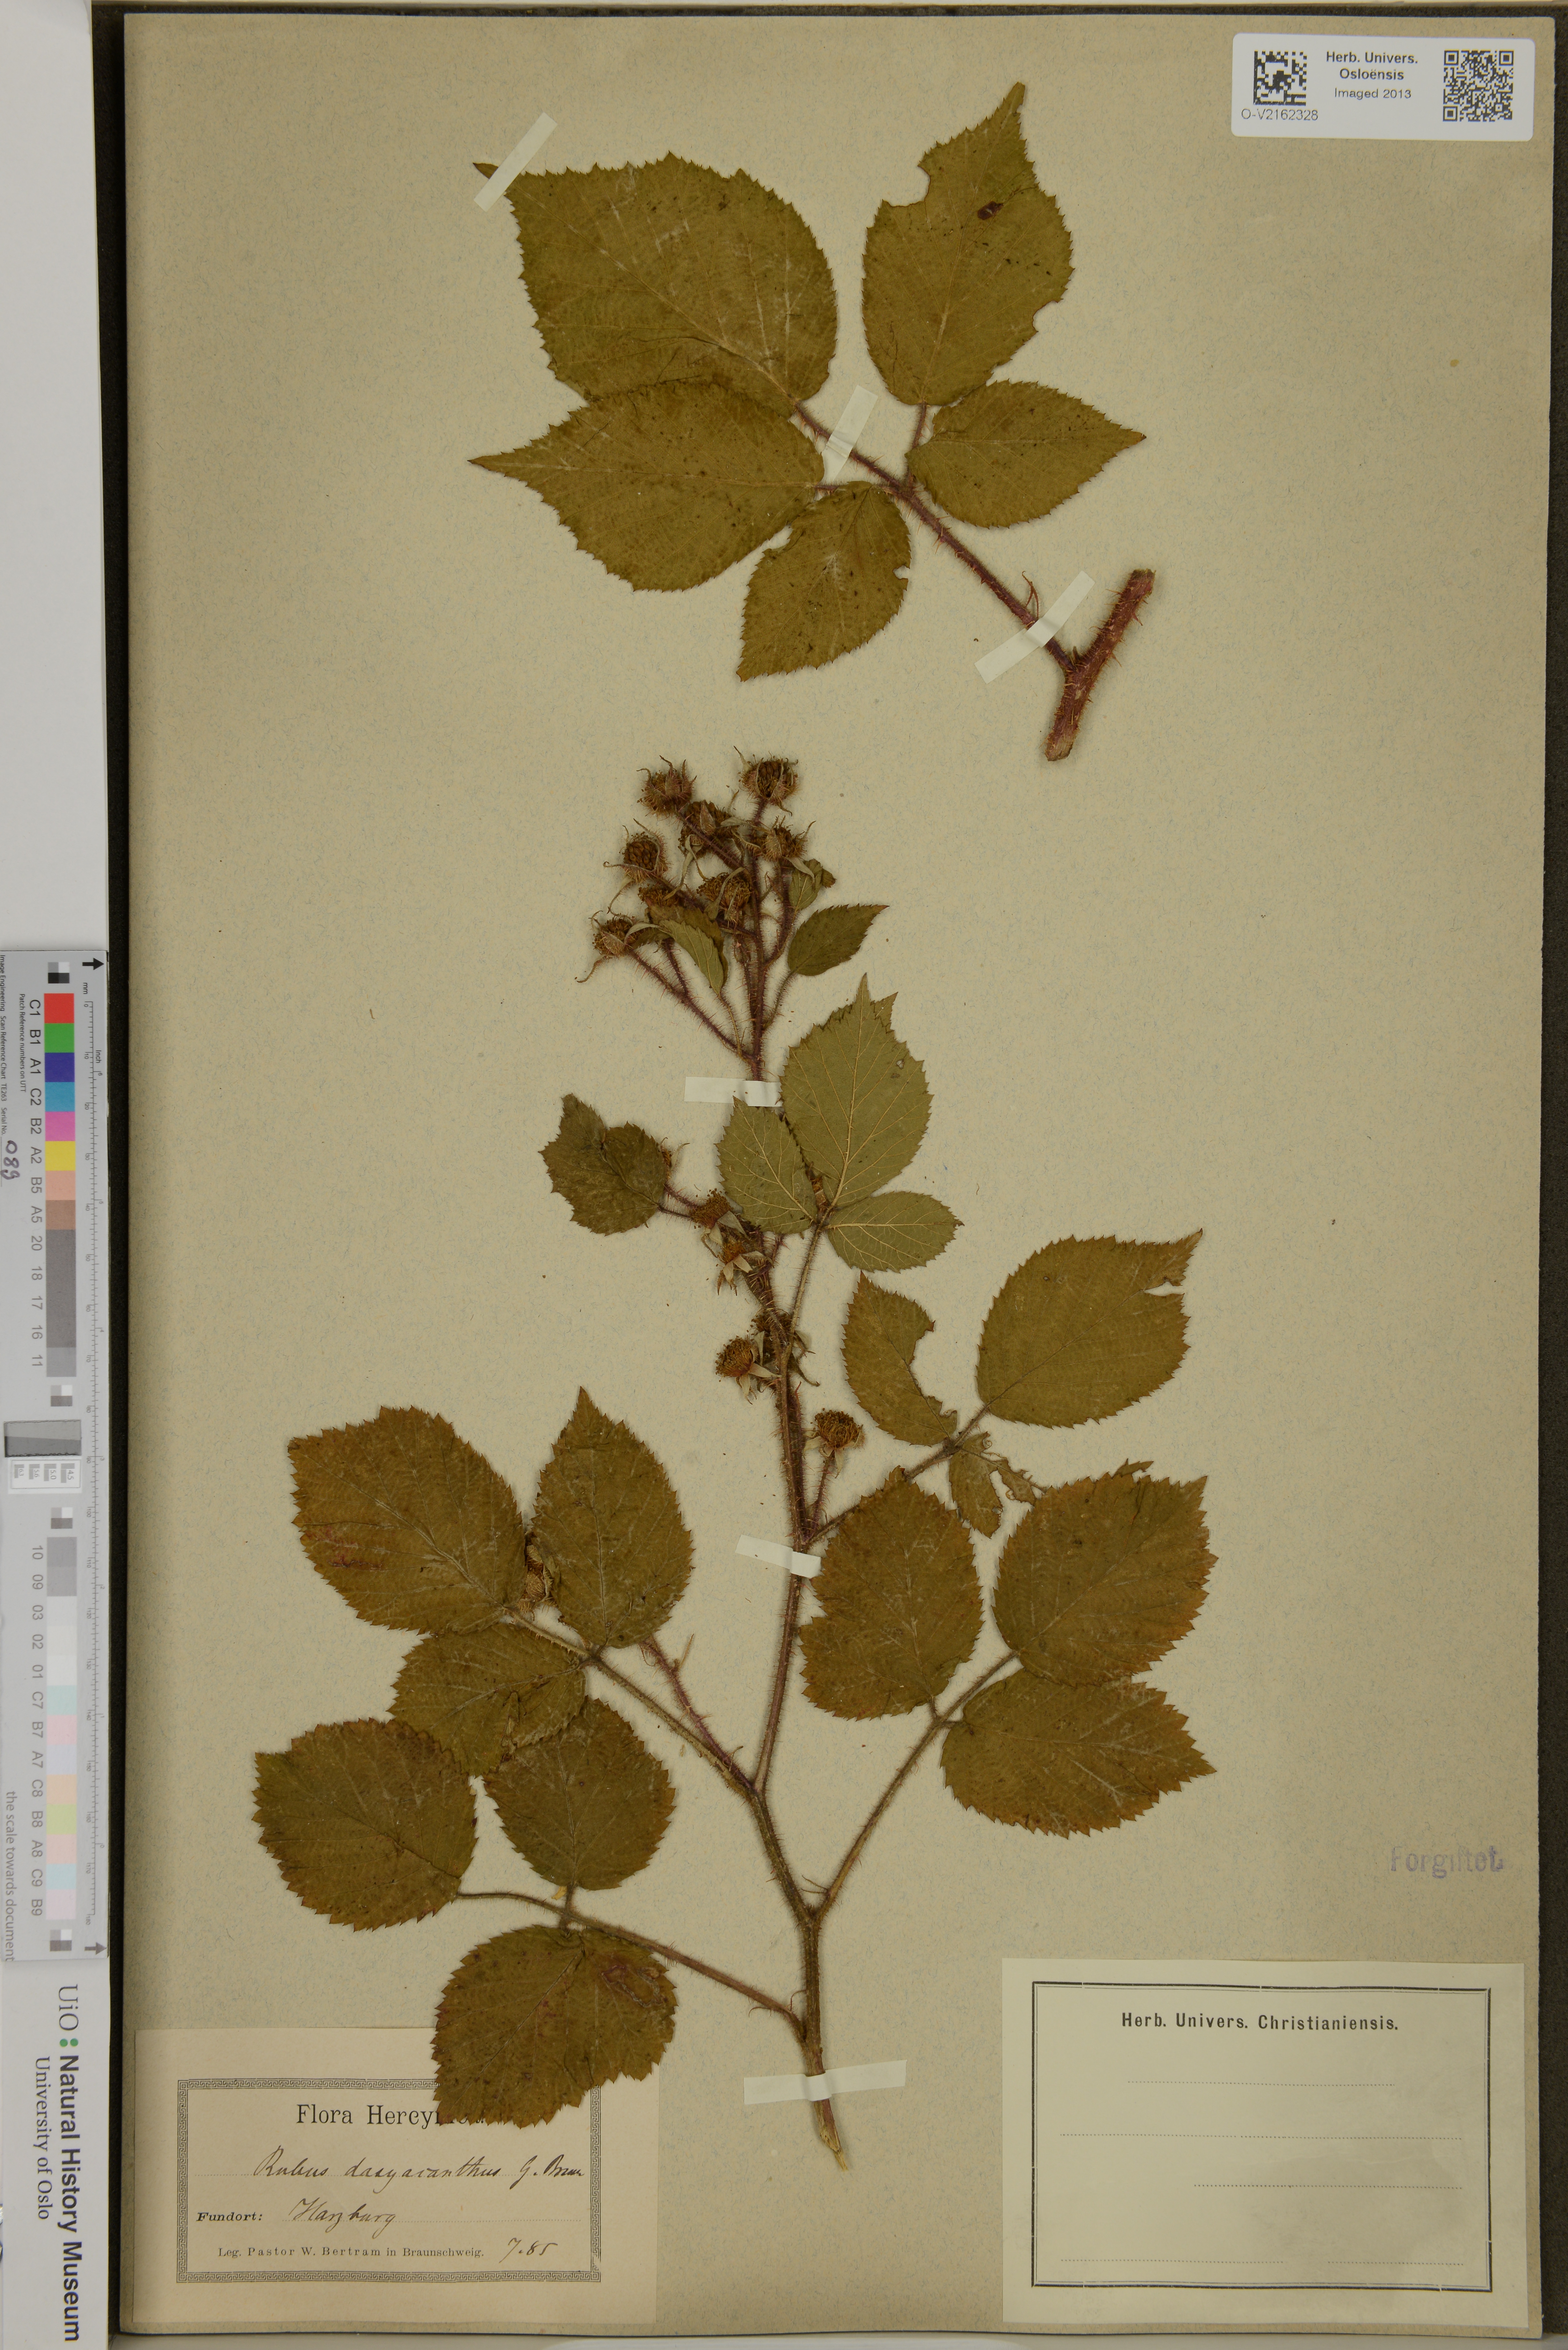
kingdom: Plantae
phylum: Tracheophyta
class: Magnoliopsida
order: Rosales
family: Rosaceae
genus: Rubus
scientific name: Rubus
